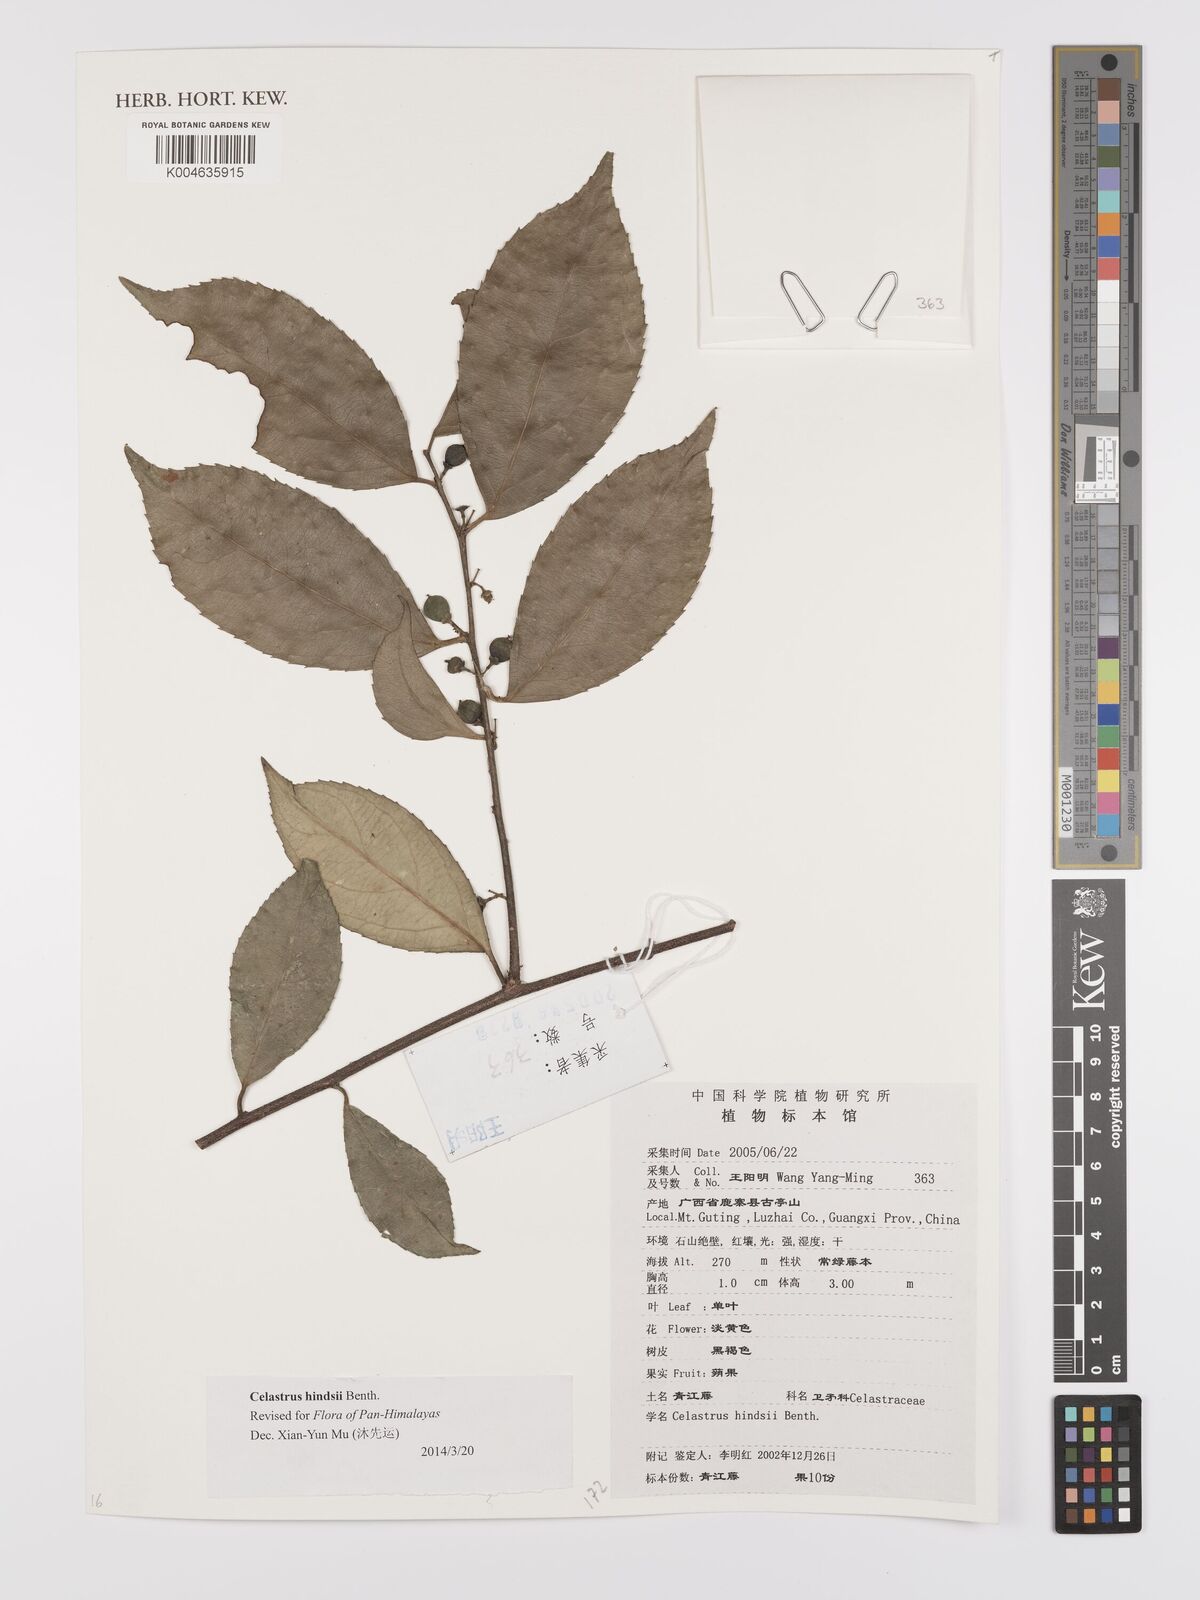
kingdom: Plantae
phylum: Tracheophyta
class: Magnoliopsida
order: Celastrales
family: Celastraceae
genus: Celastrus
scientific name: Celastrus hindsii
